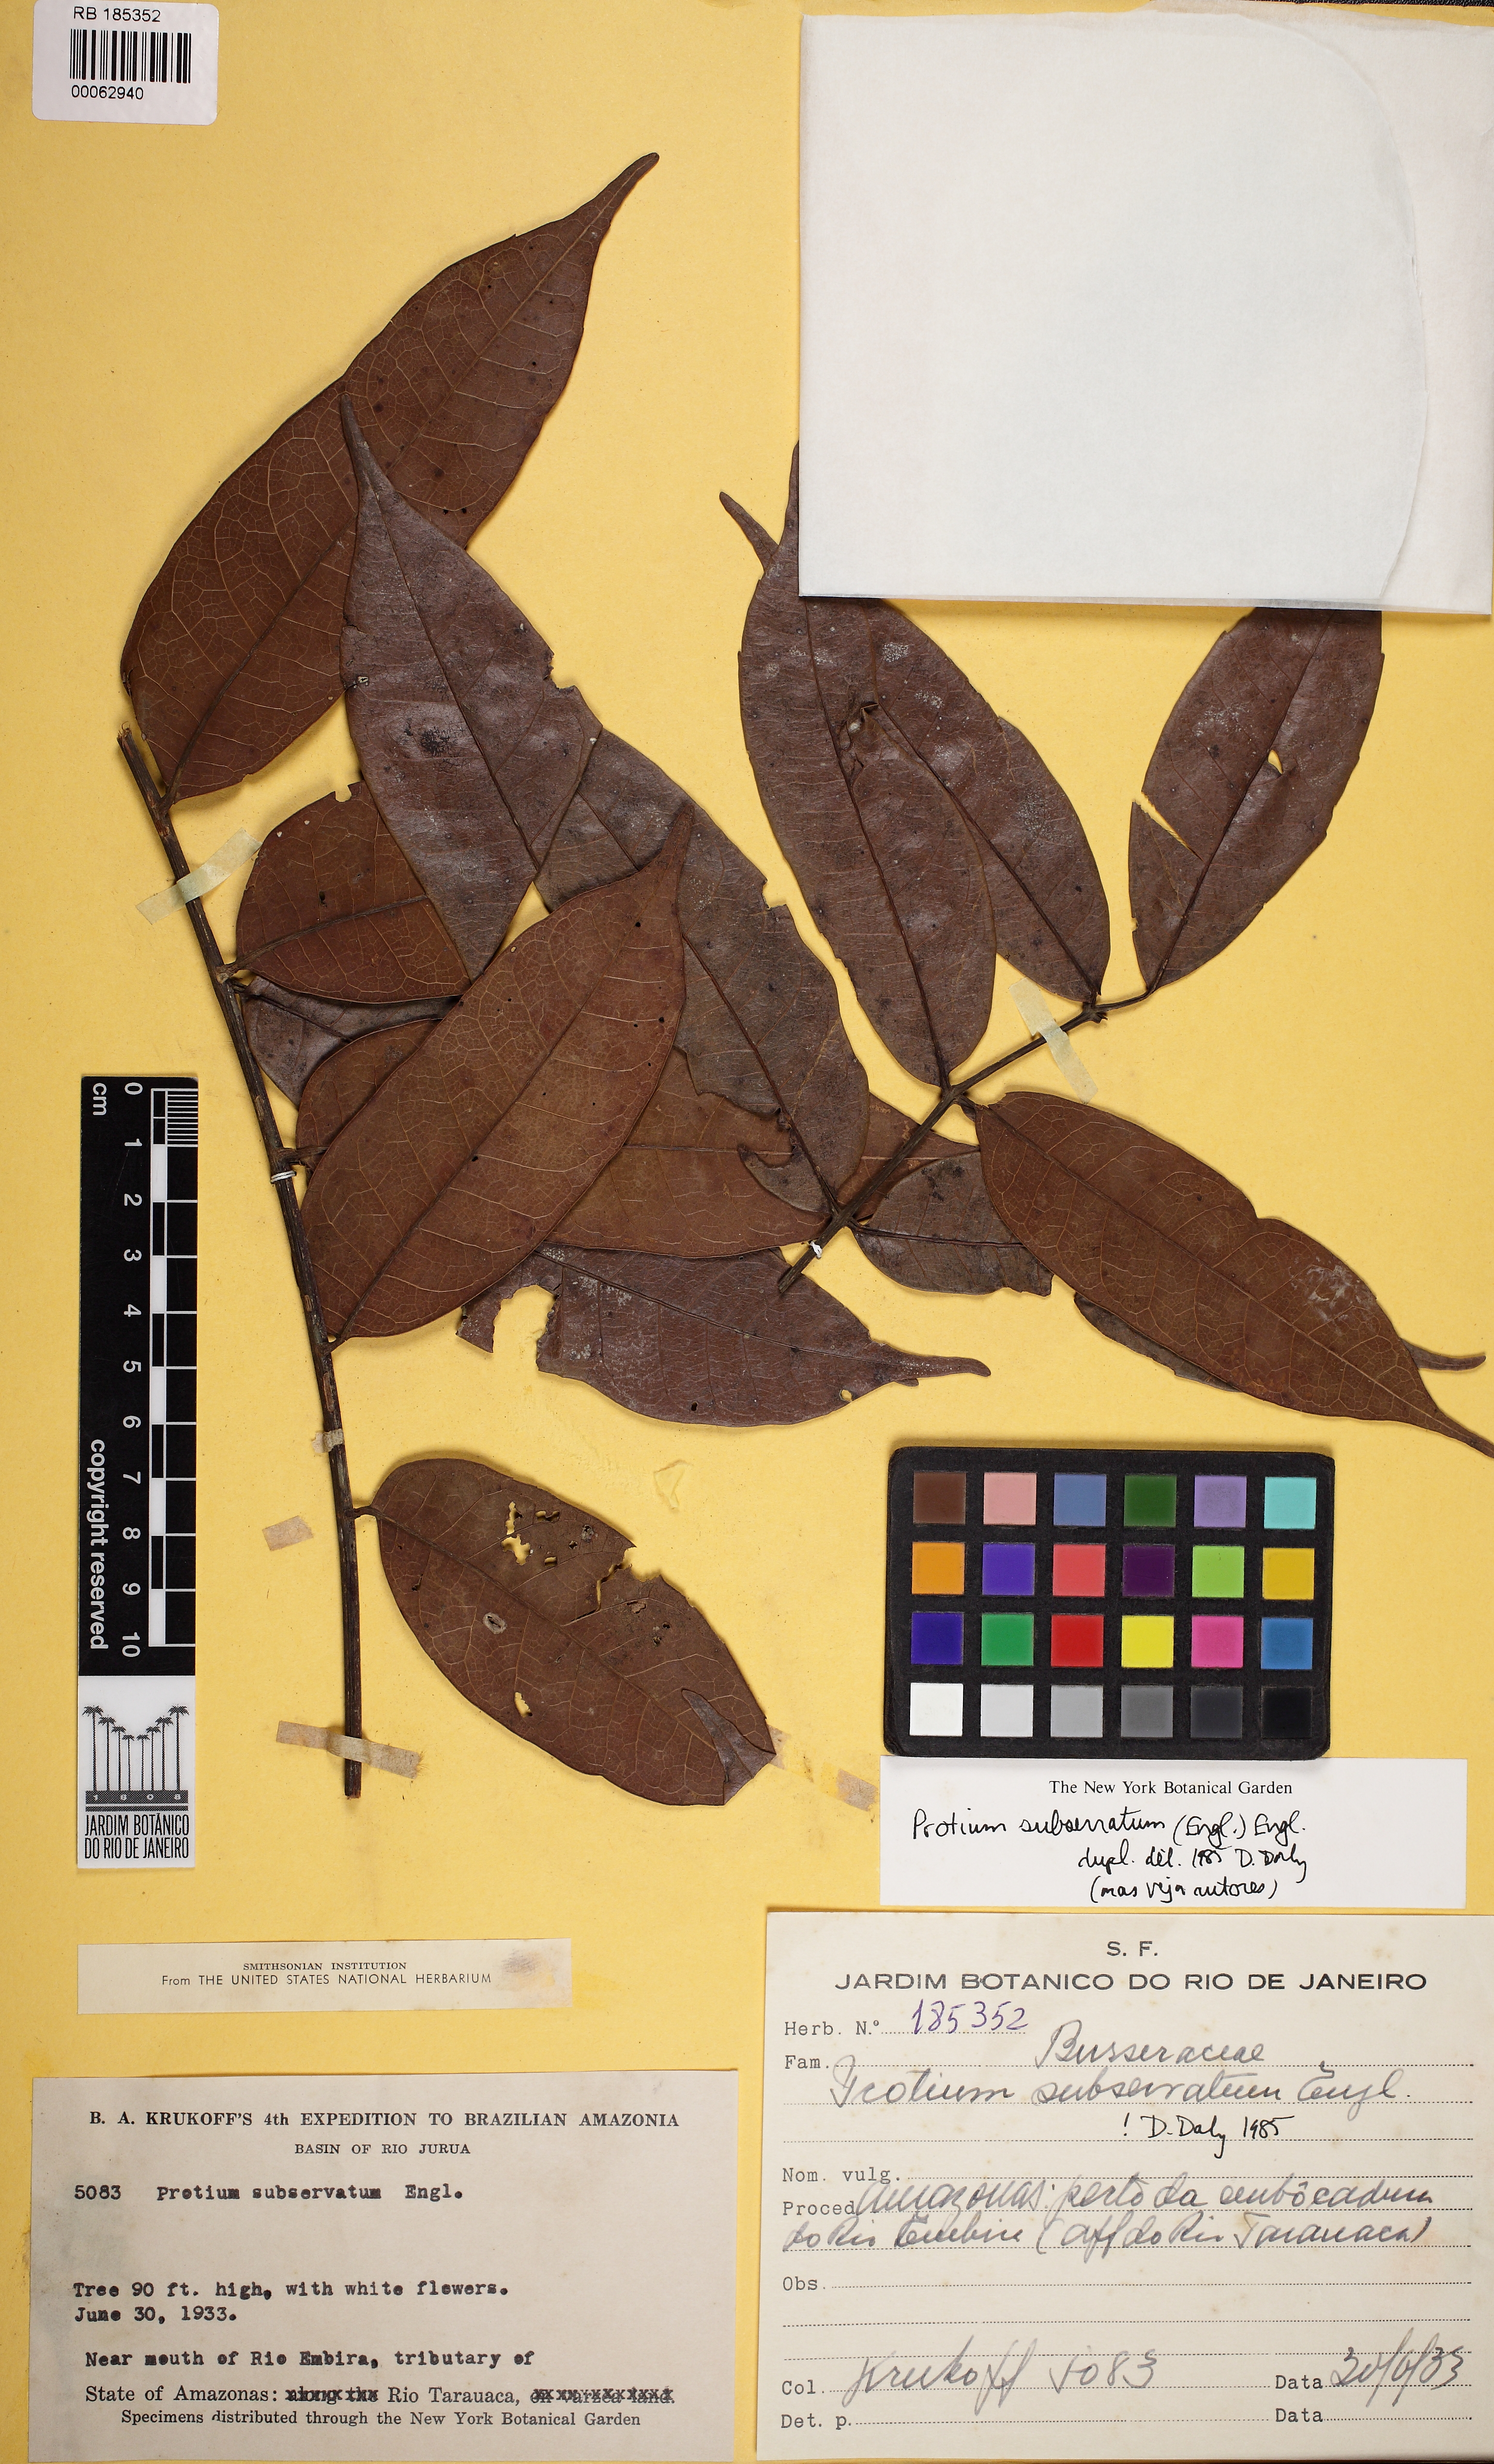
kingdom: Plantae
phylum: Tracheophyta
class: Magnoliopsida
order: Sapindales
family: Burseraceae
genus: Protium
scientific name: Protium subserratum
